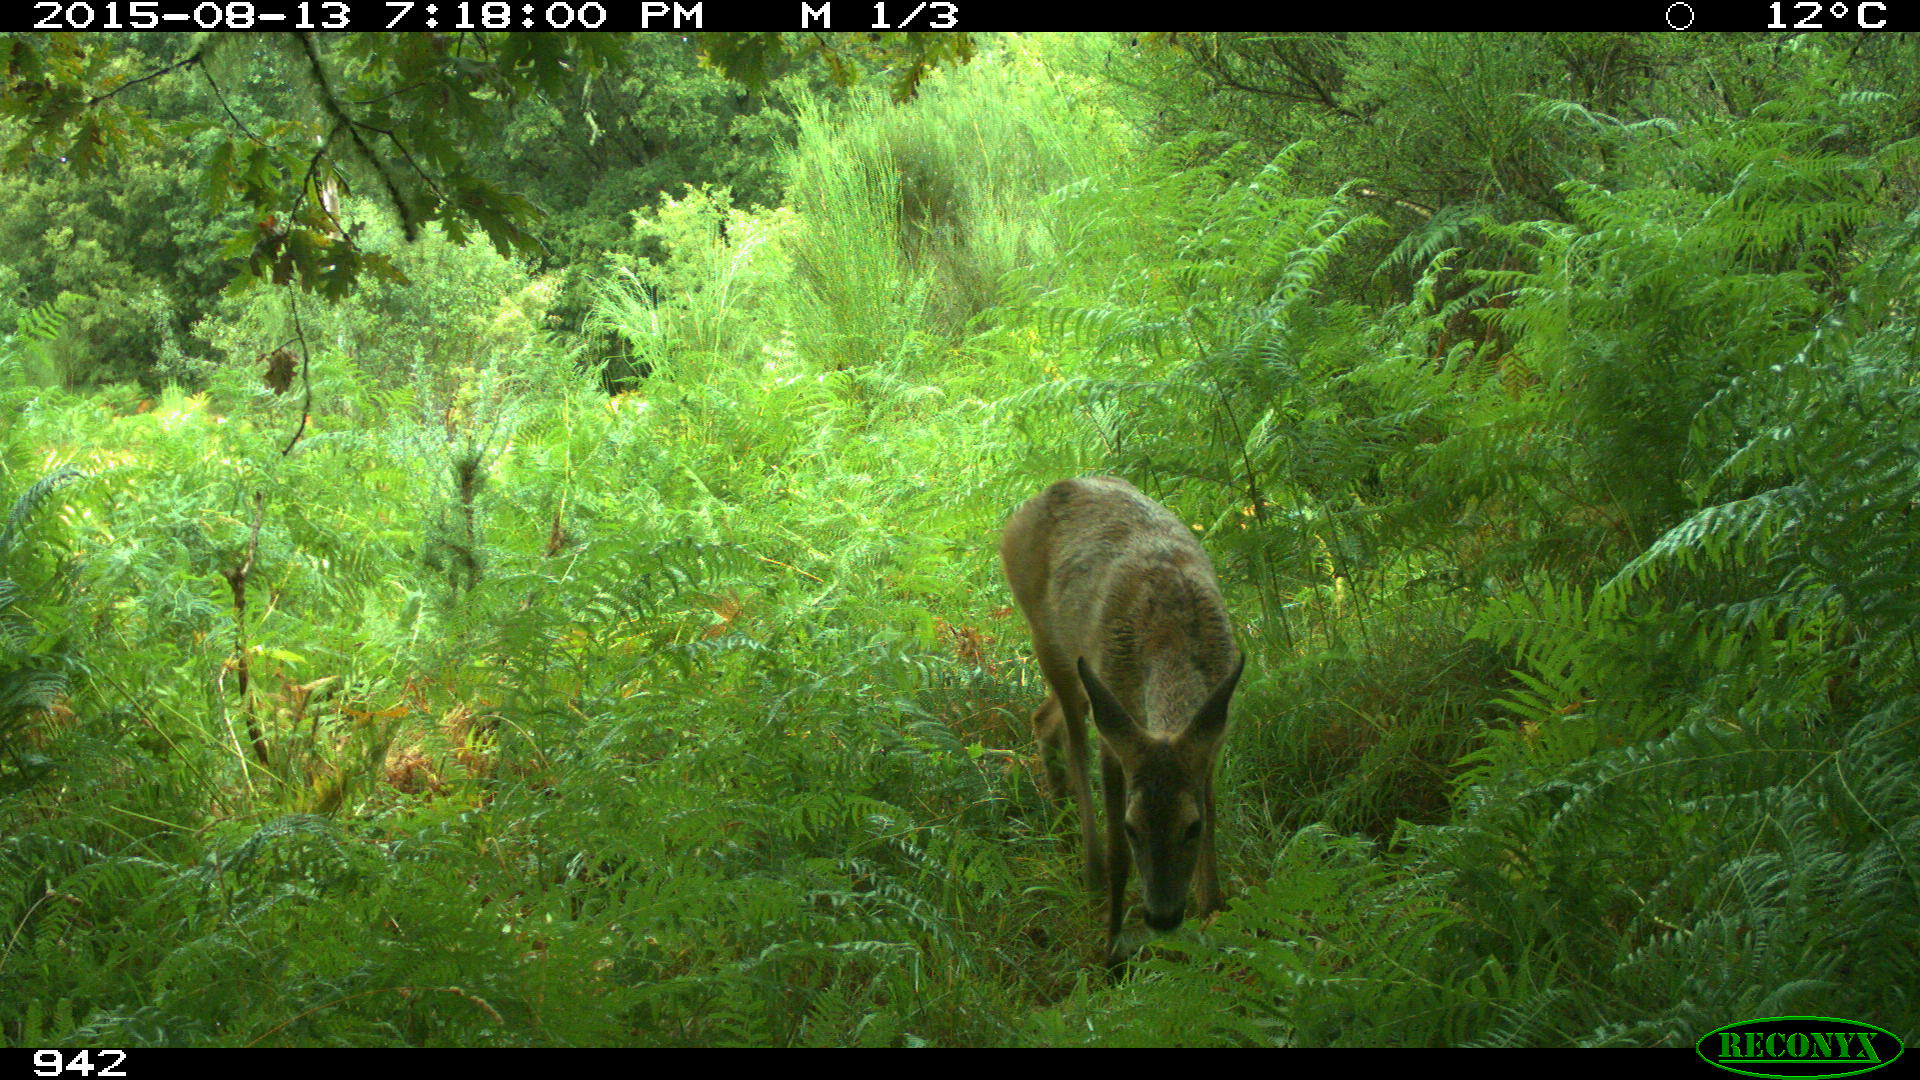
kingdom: Animalia
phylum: Chordata
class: Mammalia
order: Artiodactyla
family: Cervidae
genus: Capreolus
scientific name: Capreolus capreolus
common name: Western roe deer
